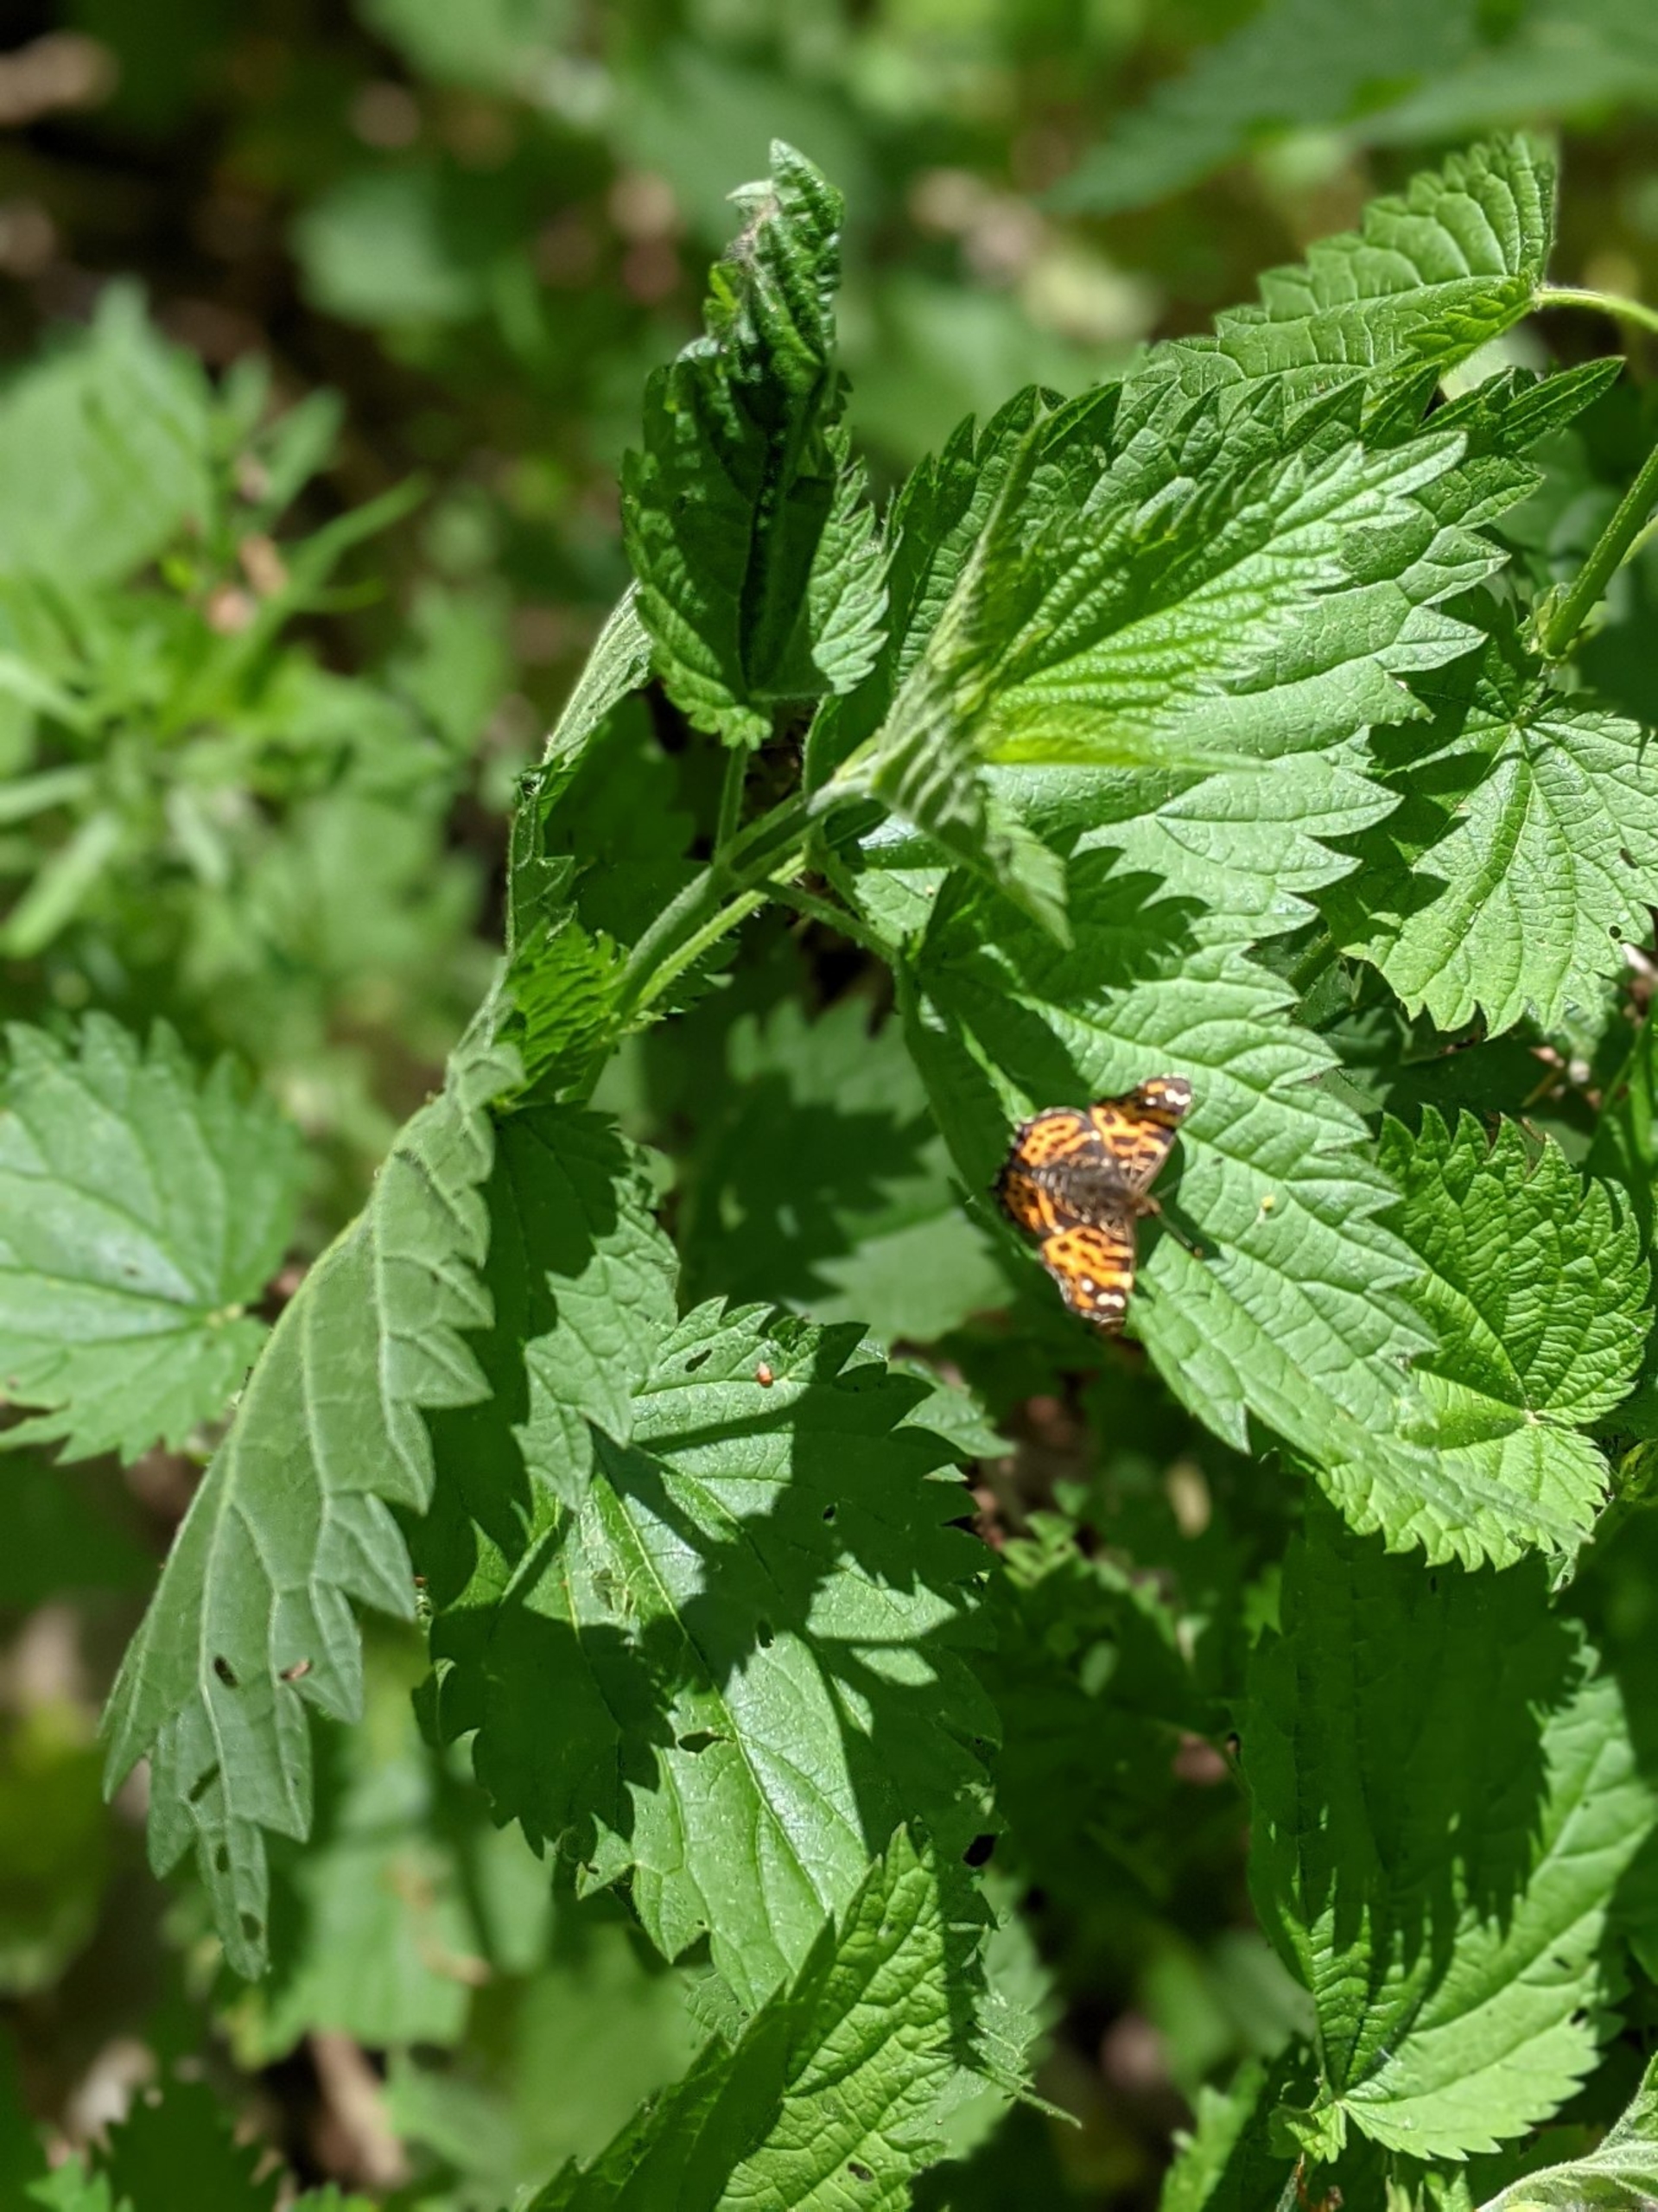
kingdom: Animalia
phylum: Arthropoda
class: Insecta
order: Lepidoptera
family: Nymphalidae
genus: Araschnia
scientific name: Araschnia levana
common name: Nældesommerfugl
